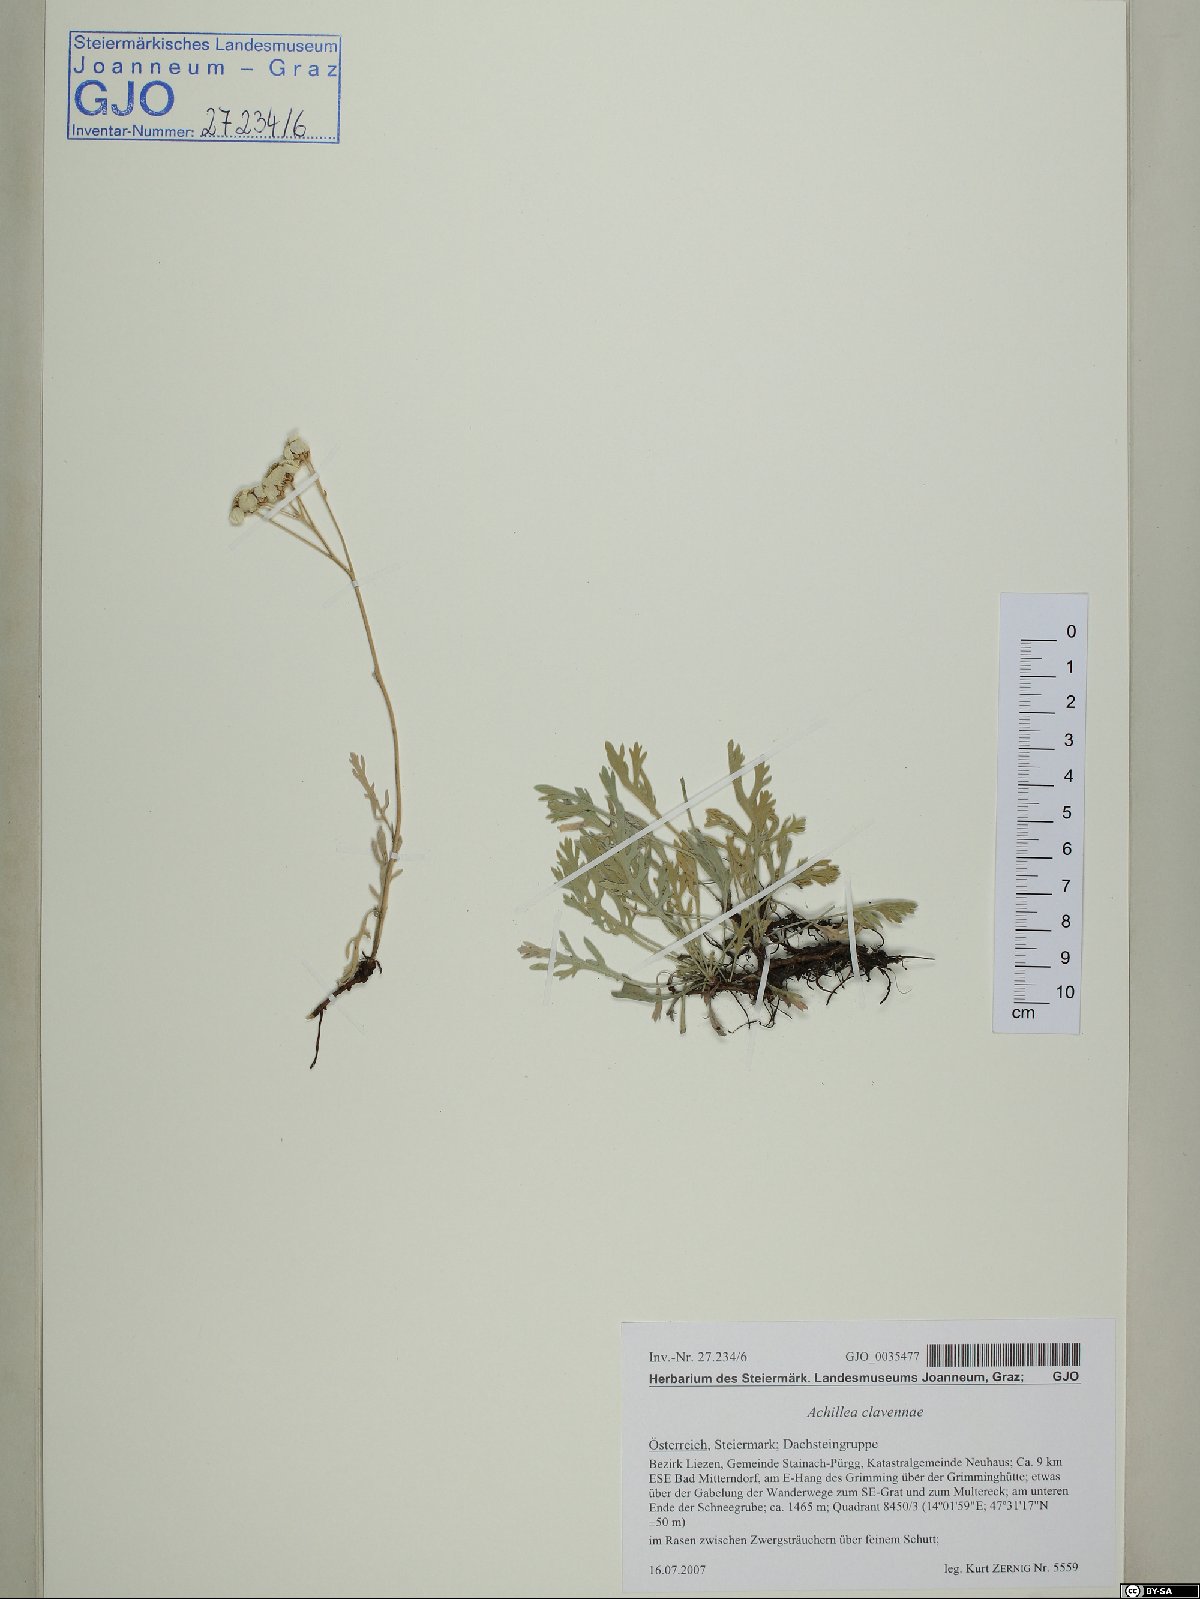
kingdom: Plantae
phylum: Tracheophyta
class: Magnoliopsida
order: Asterales
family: Asteraceae
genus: Achillea
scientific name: Achillea clavennae
